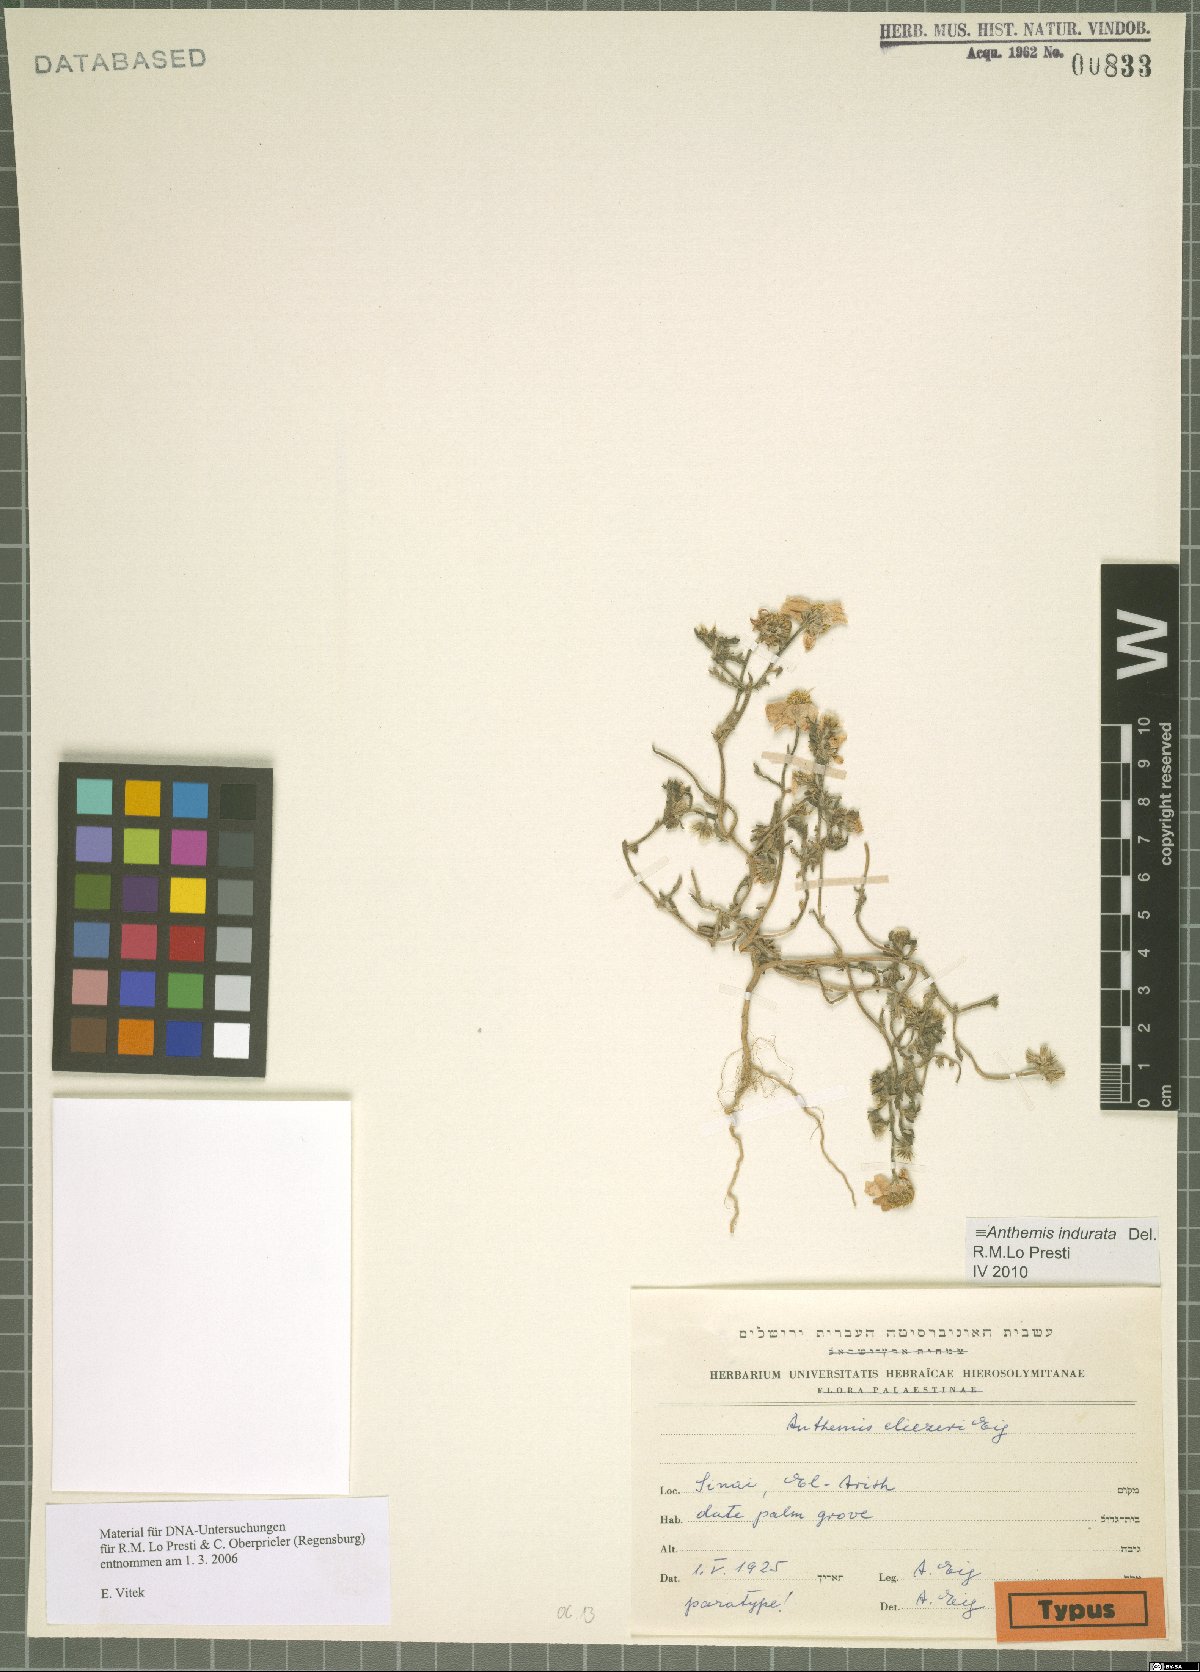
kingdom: Plantae
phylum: Tracheophyta
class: Magnoliopsida
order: Asterales
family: Asteraceae
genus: Anthemis
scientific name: Anthemis indurata
